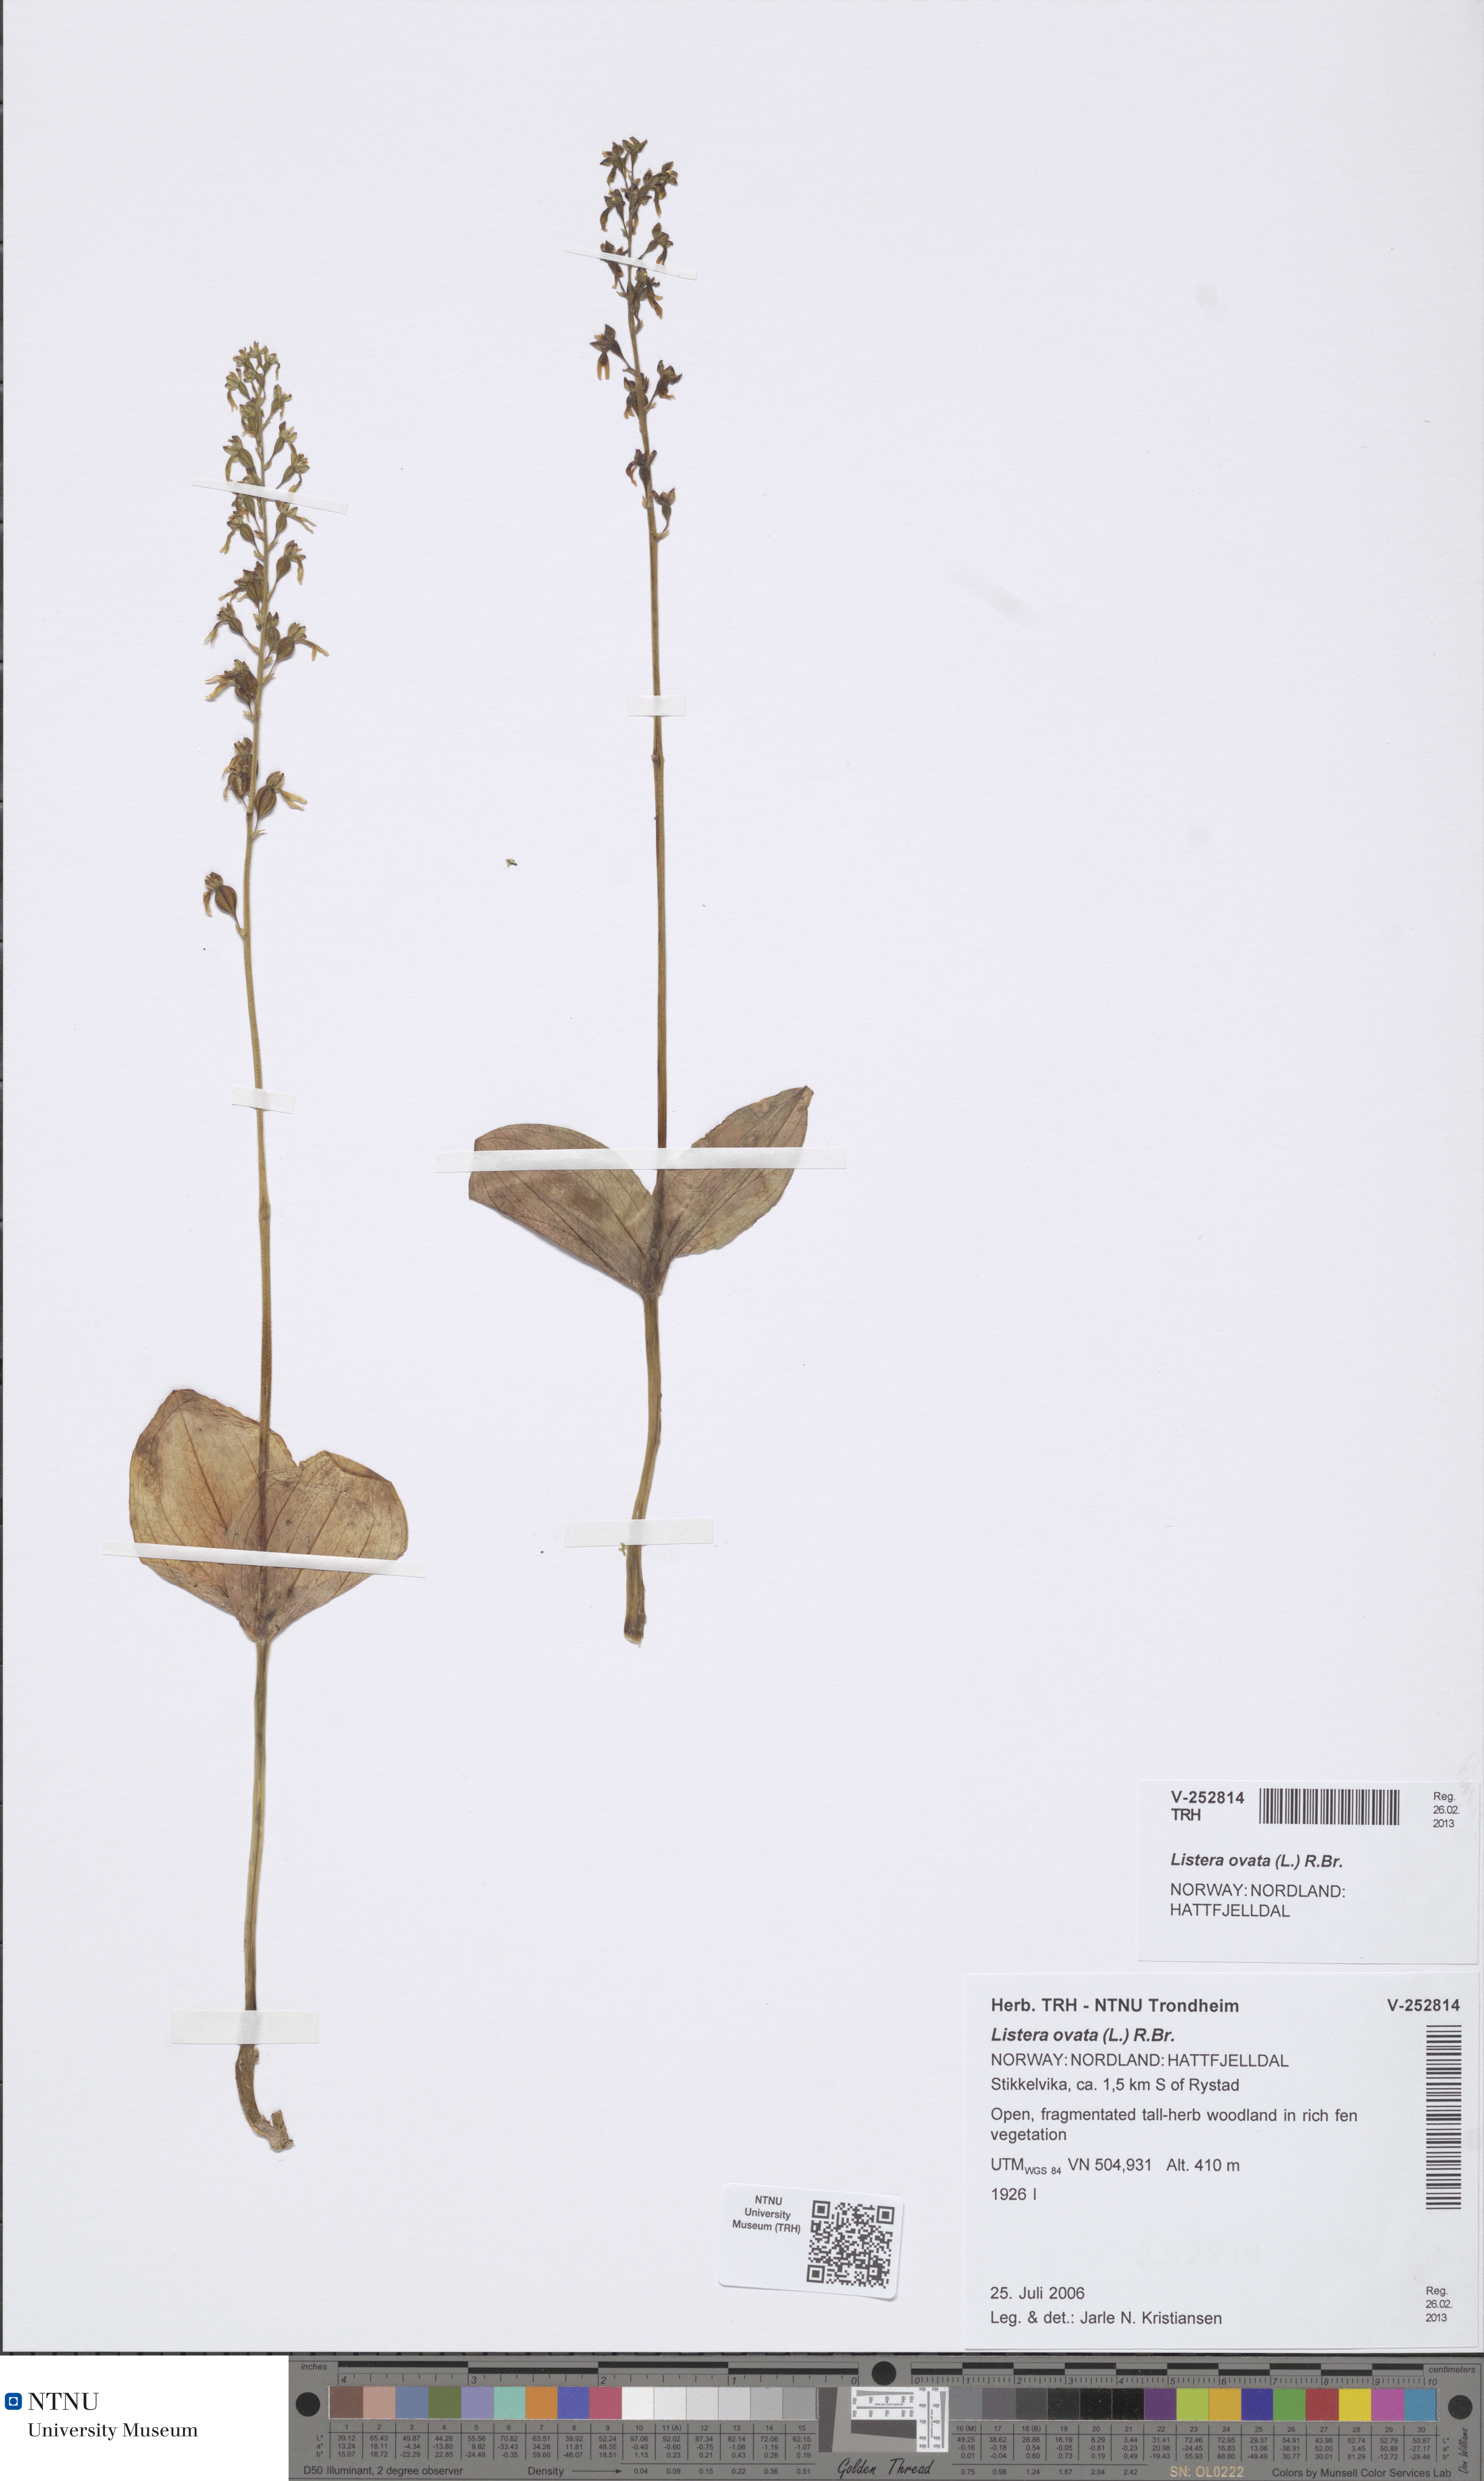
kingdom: Plantae
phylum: Tracheophyta
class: Liliopsida
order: Asparagales
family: Orchidaceae
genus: Neottia
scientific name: Neottia ovata
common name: Common twayblade
